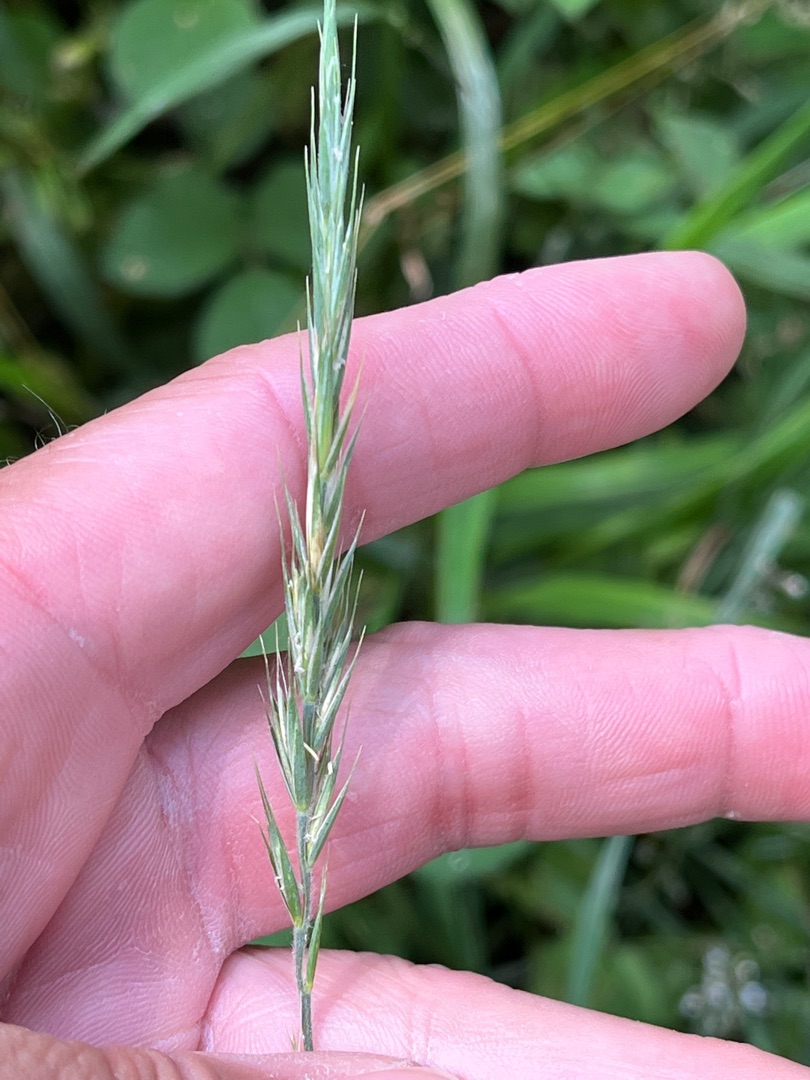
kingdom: Plantae
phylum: Tracheophyta
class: Liliopsida
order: Poales
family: Poaceae
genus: Elymus
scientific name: Elymus repens
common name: Almindelig kvik
